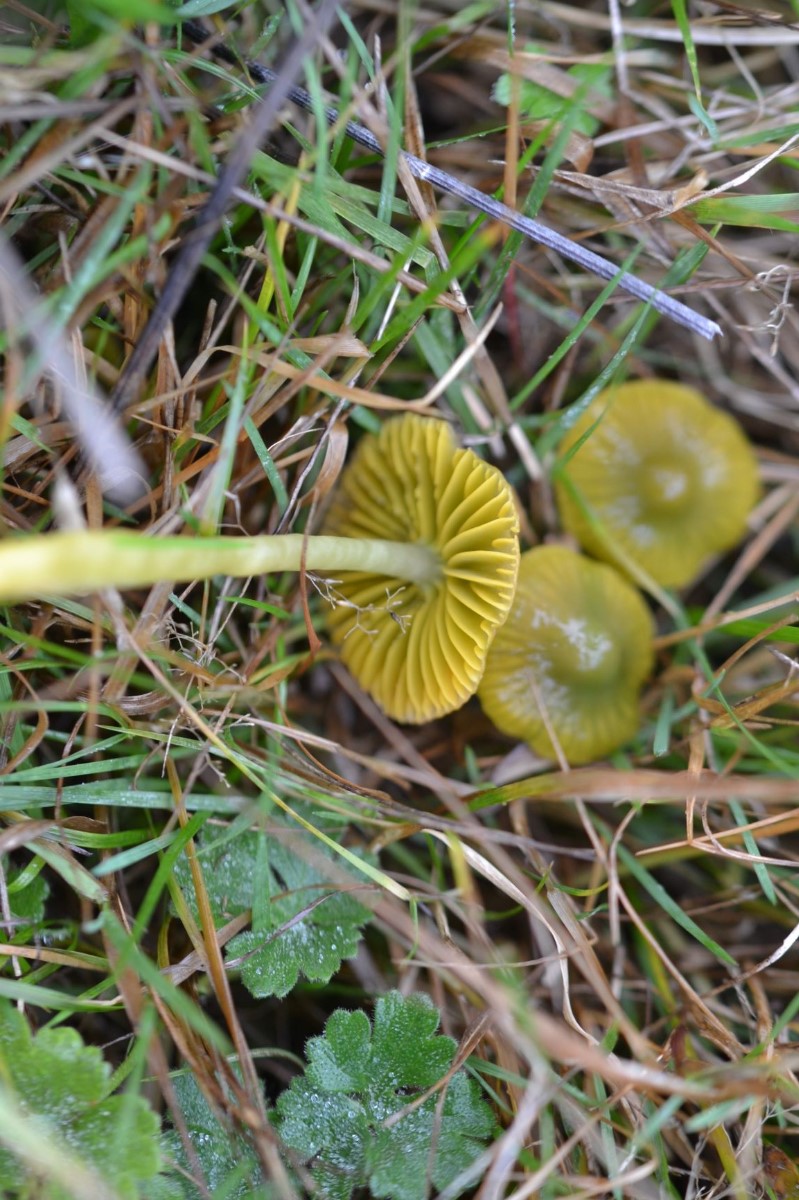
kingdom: Fungi
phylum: Basidiomycota
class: Agaricomycetes
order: Agaricales
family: Hygrophoraceae
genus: Gliophorus
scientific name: Gliophorus psittacinus
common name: papegøje-vokshat
